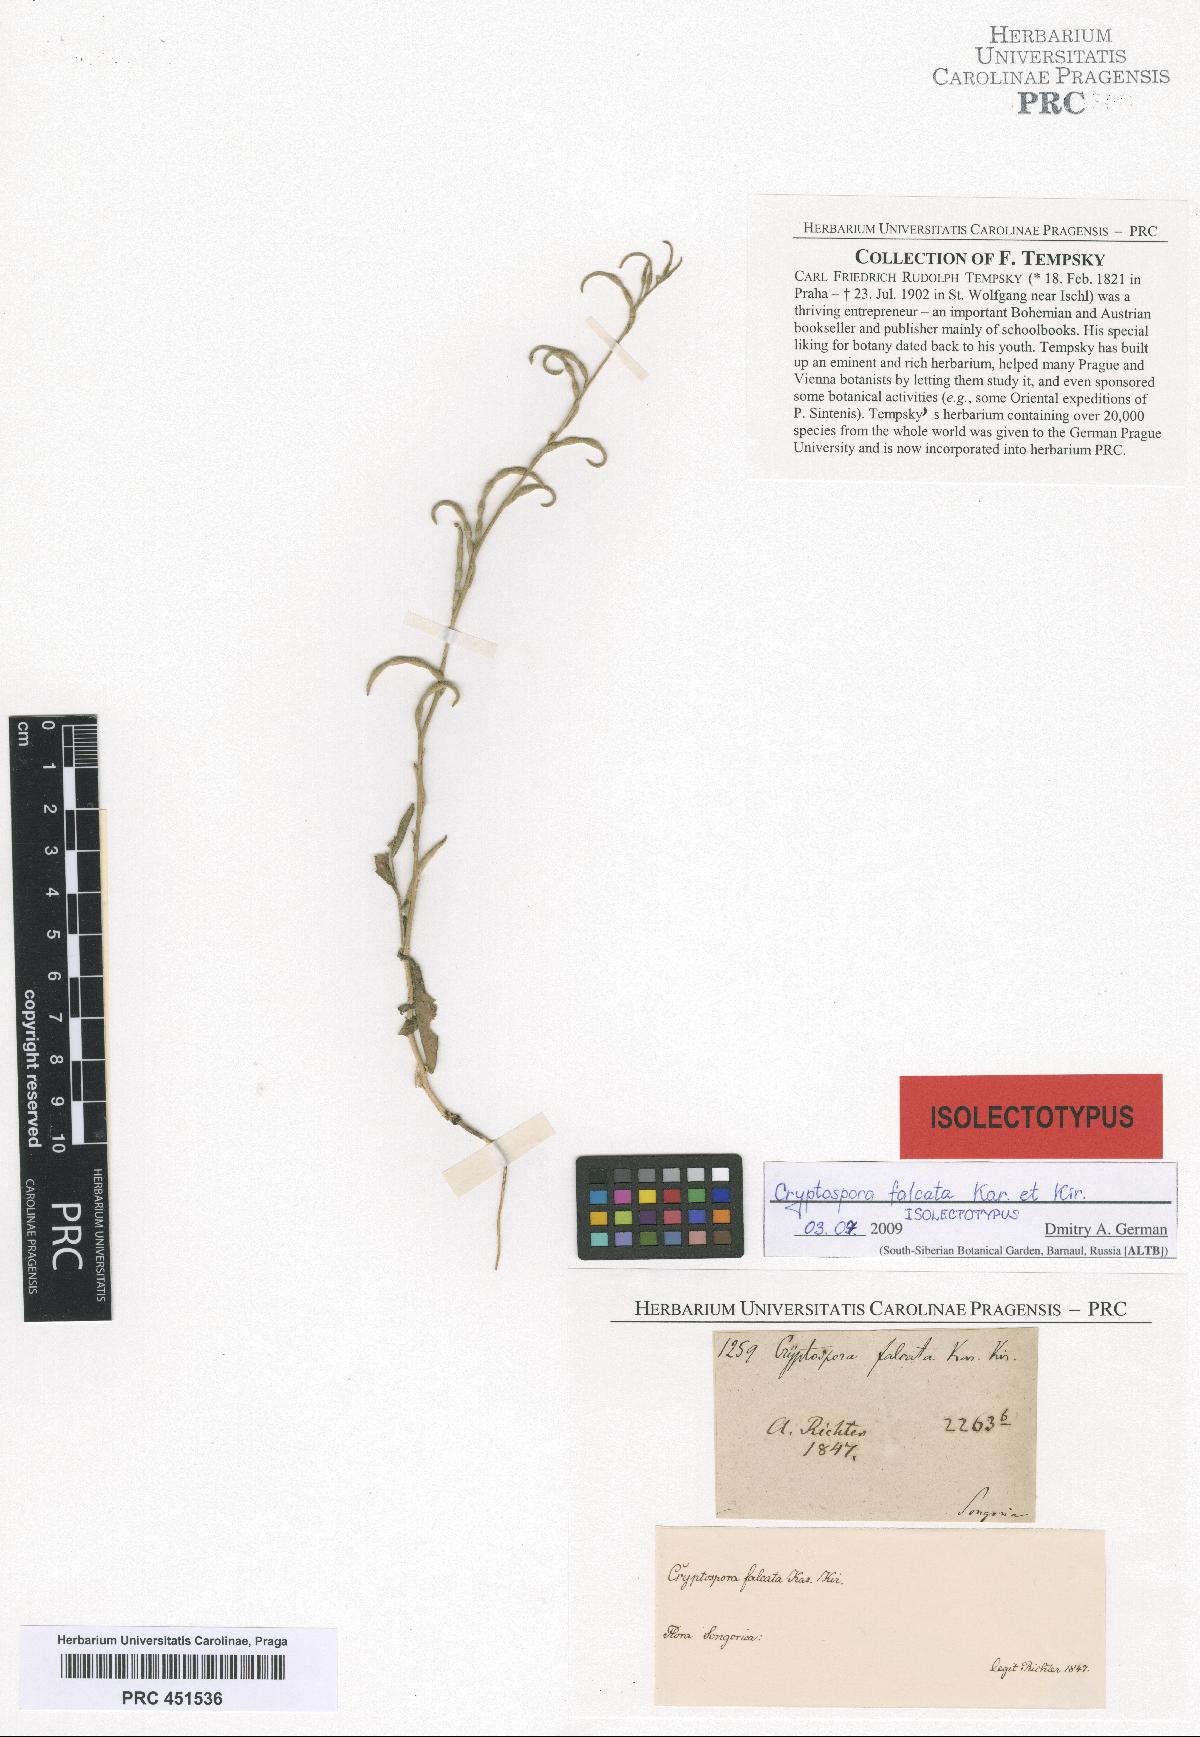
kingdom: Plantae
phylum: Tracheophyta
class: Magnoliopsida
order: Brassicales
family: Brassicaceae
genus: Cryptospora
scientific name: Cryptospora falcata
